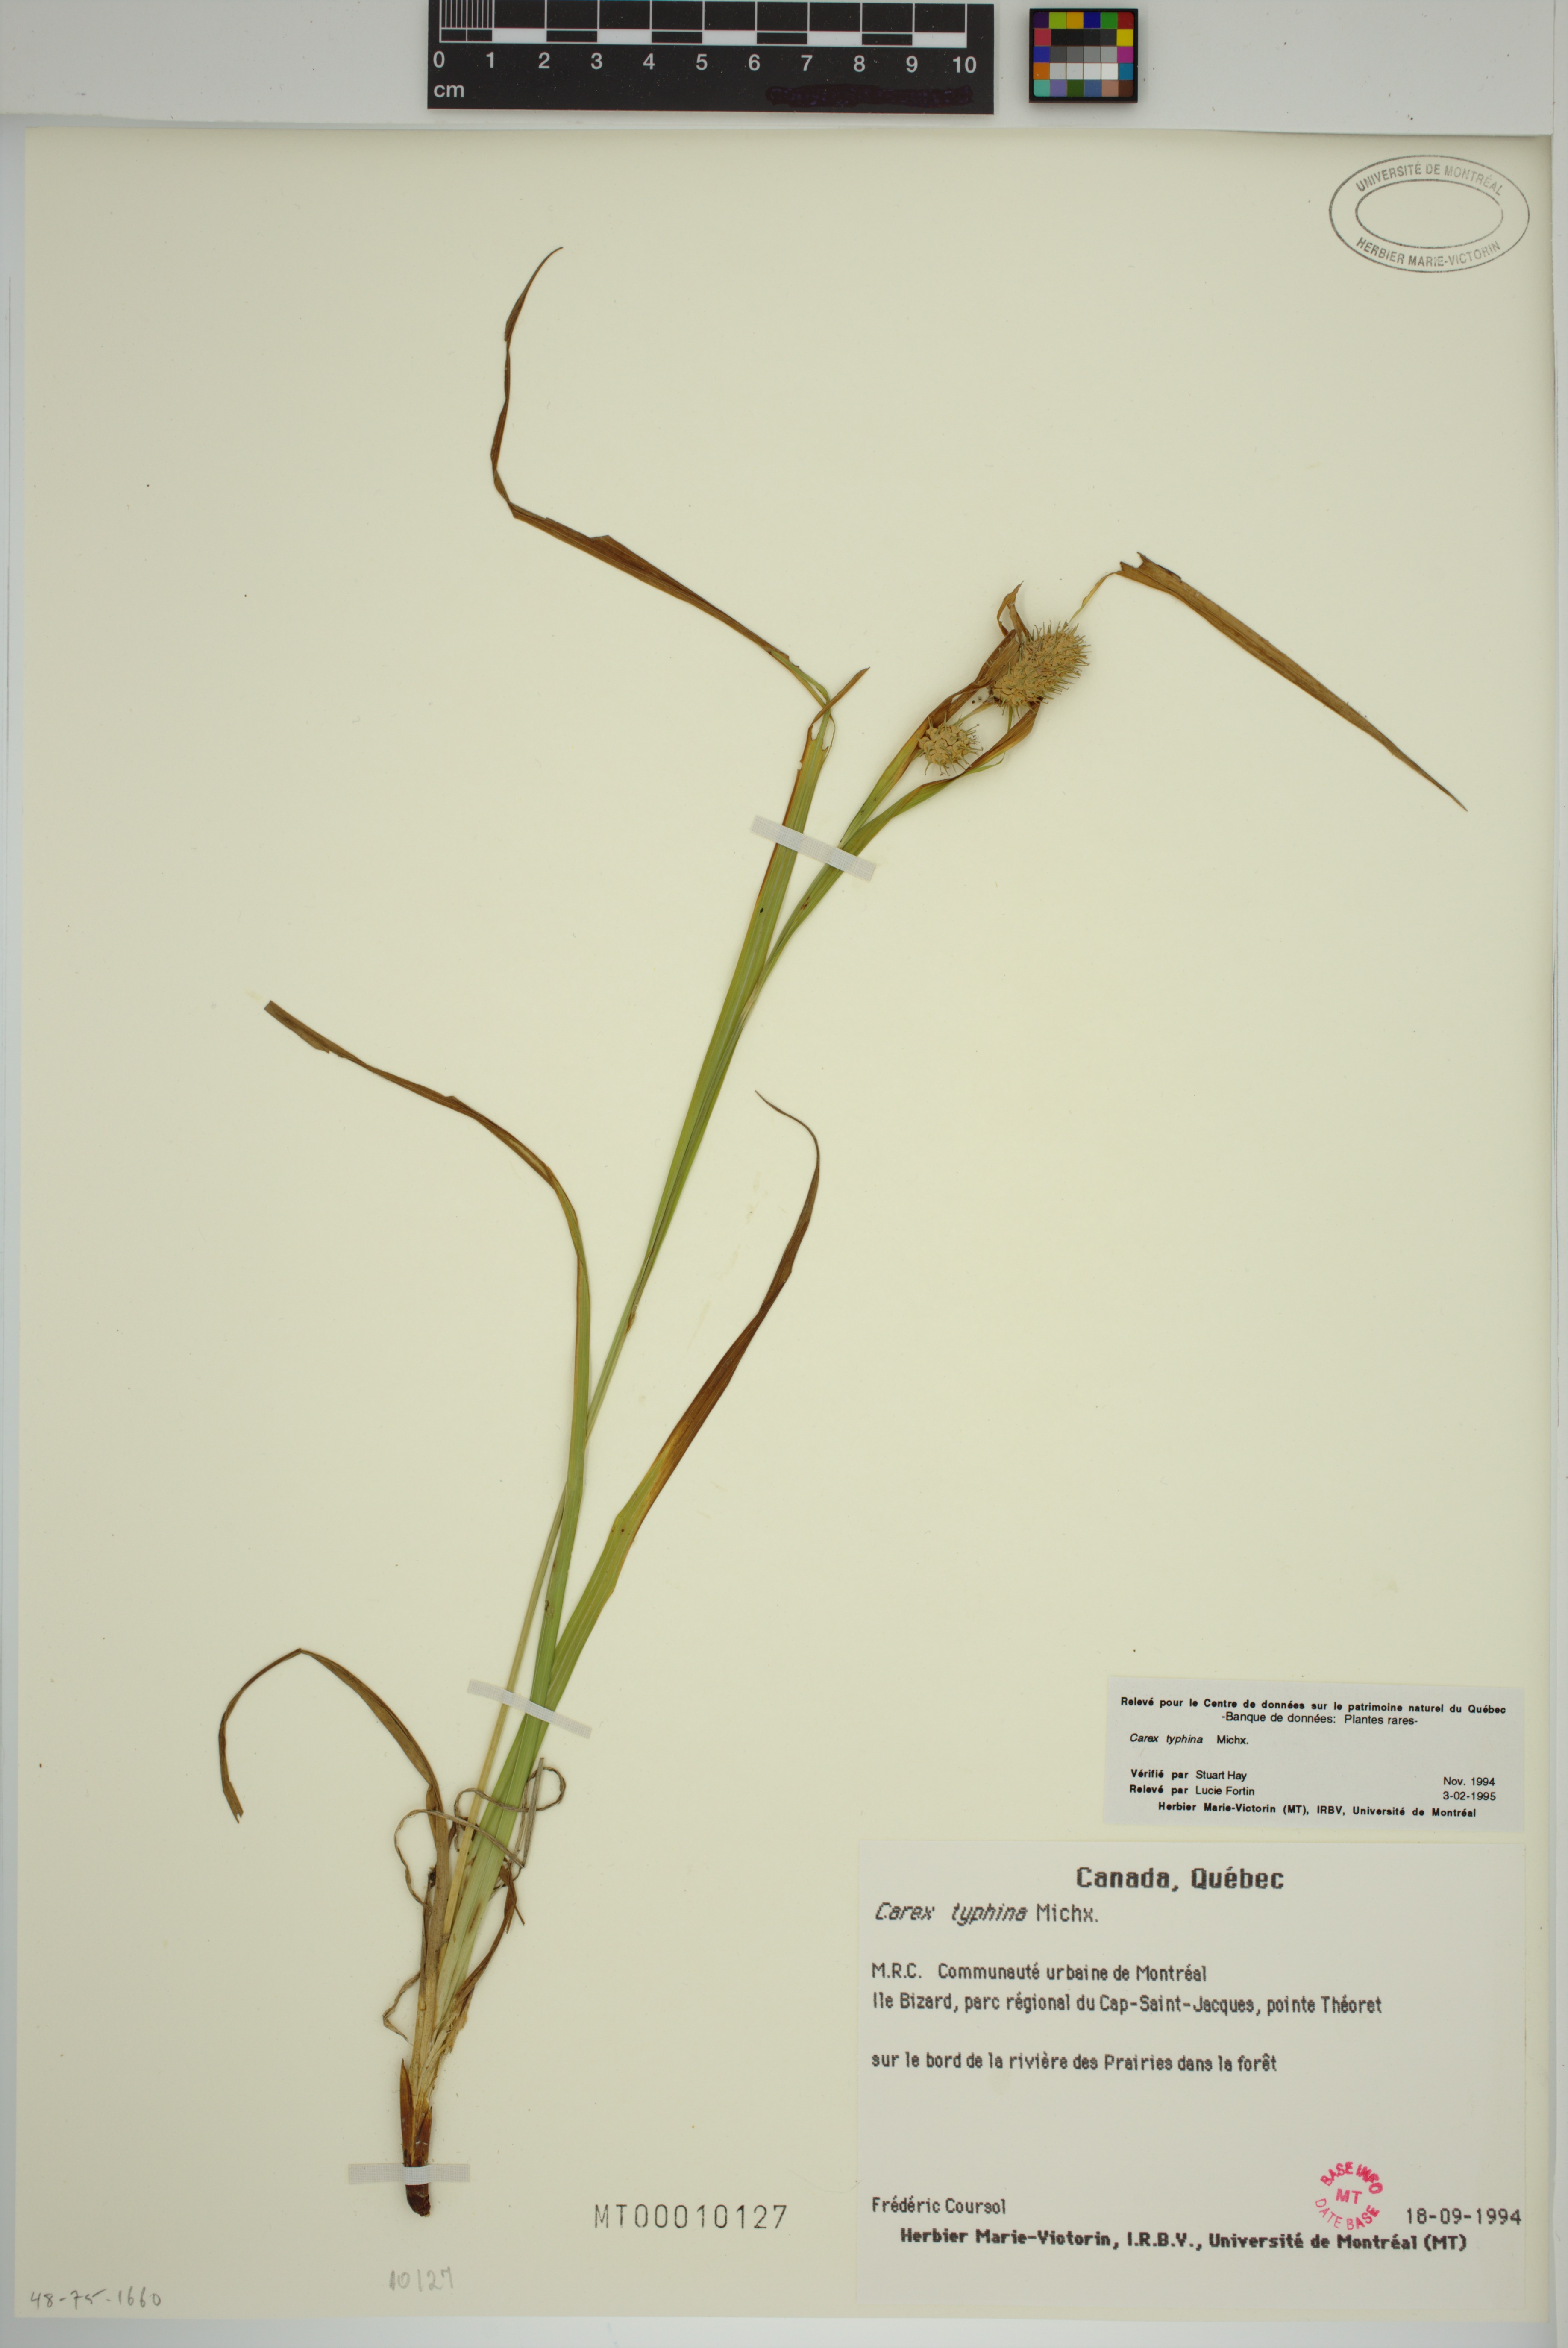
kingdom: Plantae
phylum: Tracheophyta
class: Liliopsida
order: Poales
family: Cyperaceae
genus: Carex
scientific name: Carex typhina
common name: Cattail sedge
